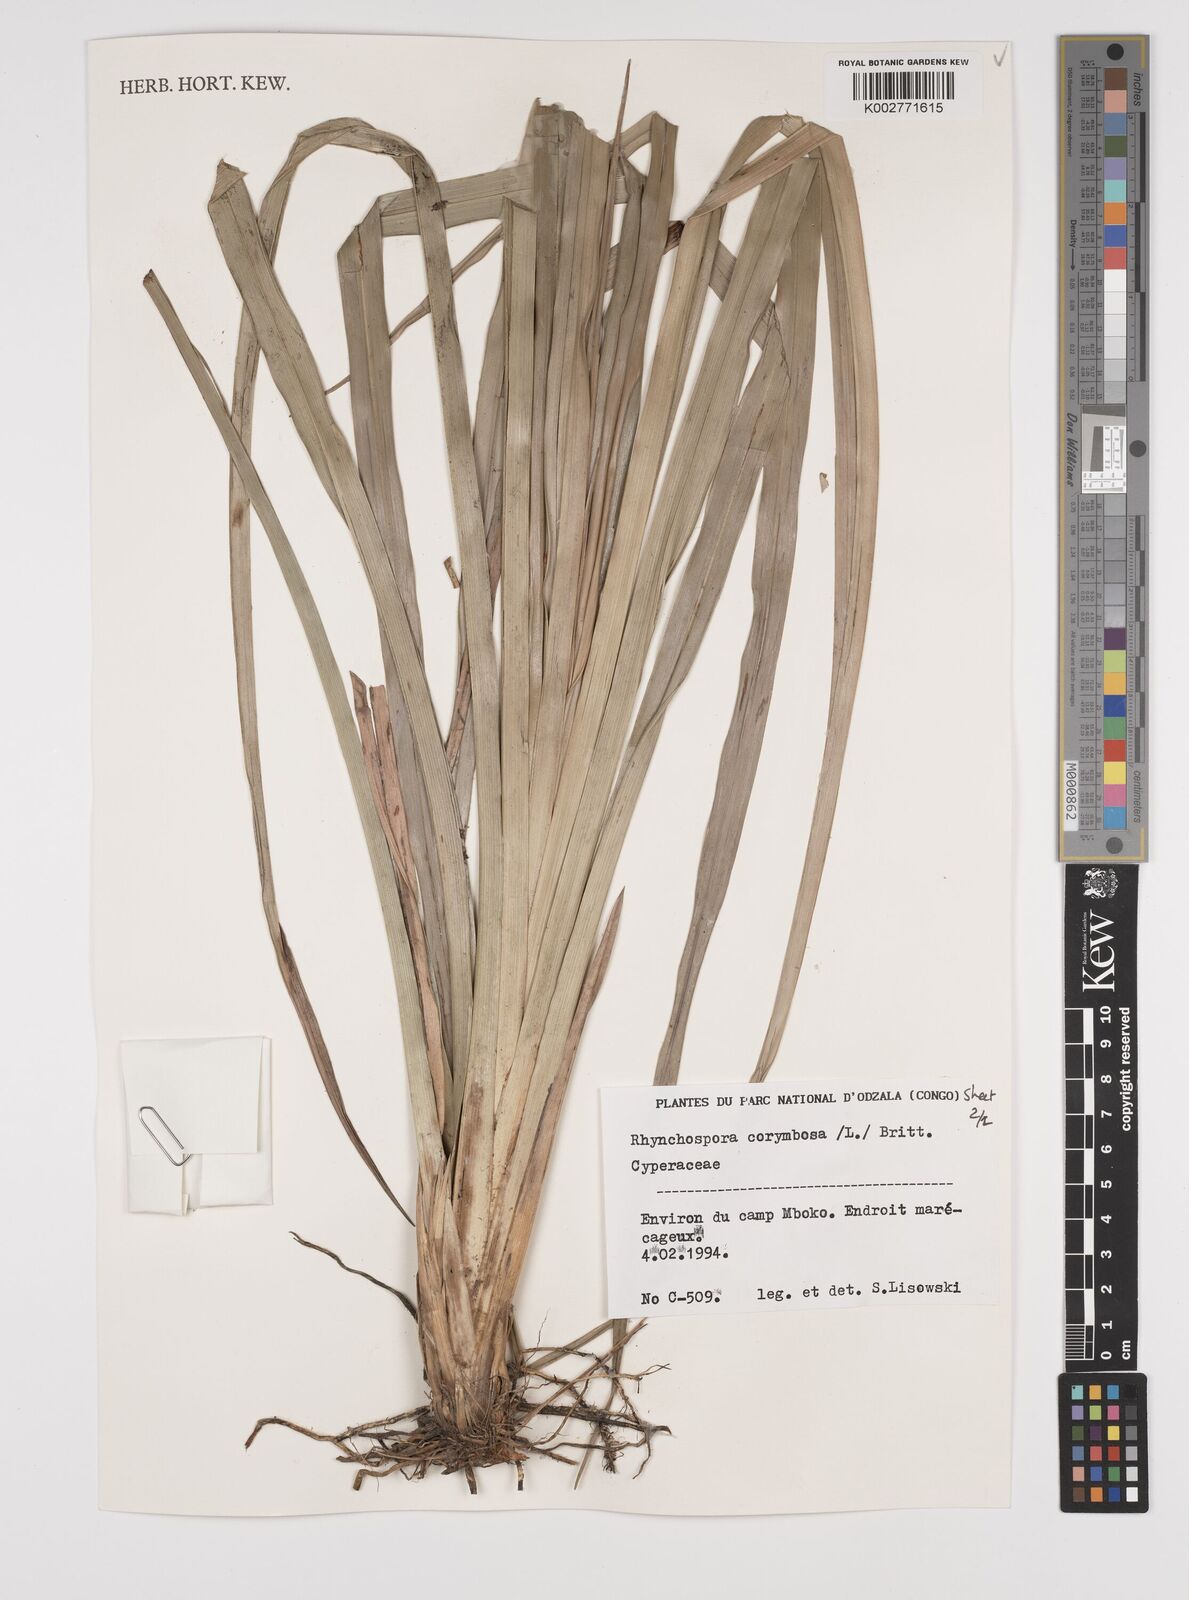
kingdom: Plantae
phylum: Tracheophyta
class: Liliopsida
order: Poales
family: Cyperaceae
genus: Rhynchospora
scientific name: Rhynchospora corymbosa
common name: Golden beak sedge
